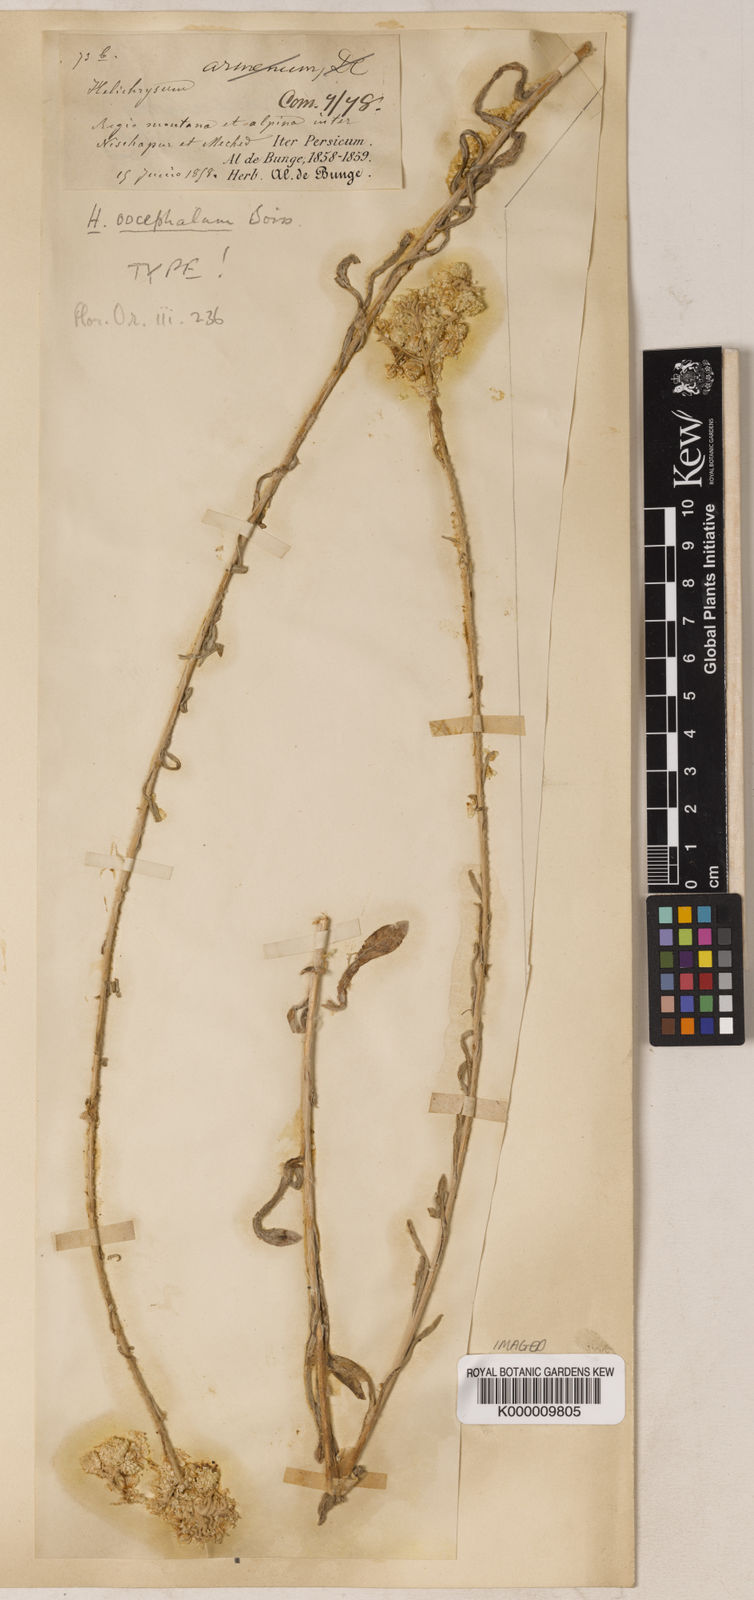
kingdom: Plantae
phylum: Tracheophyta
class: Magnoliopsida
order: Asterales
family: Asteraceae
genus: Helichrysum
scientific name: Helichrysum oocephalum
